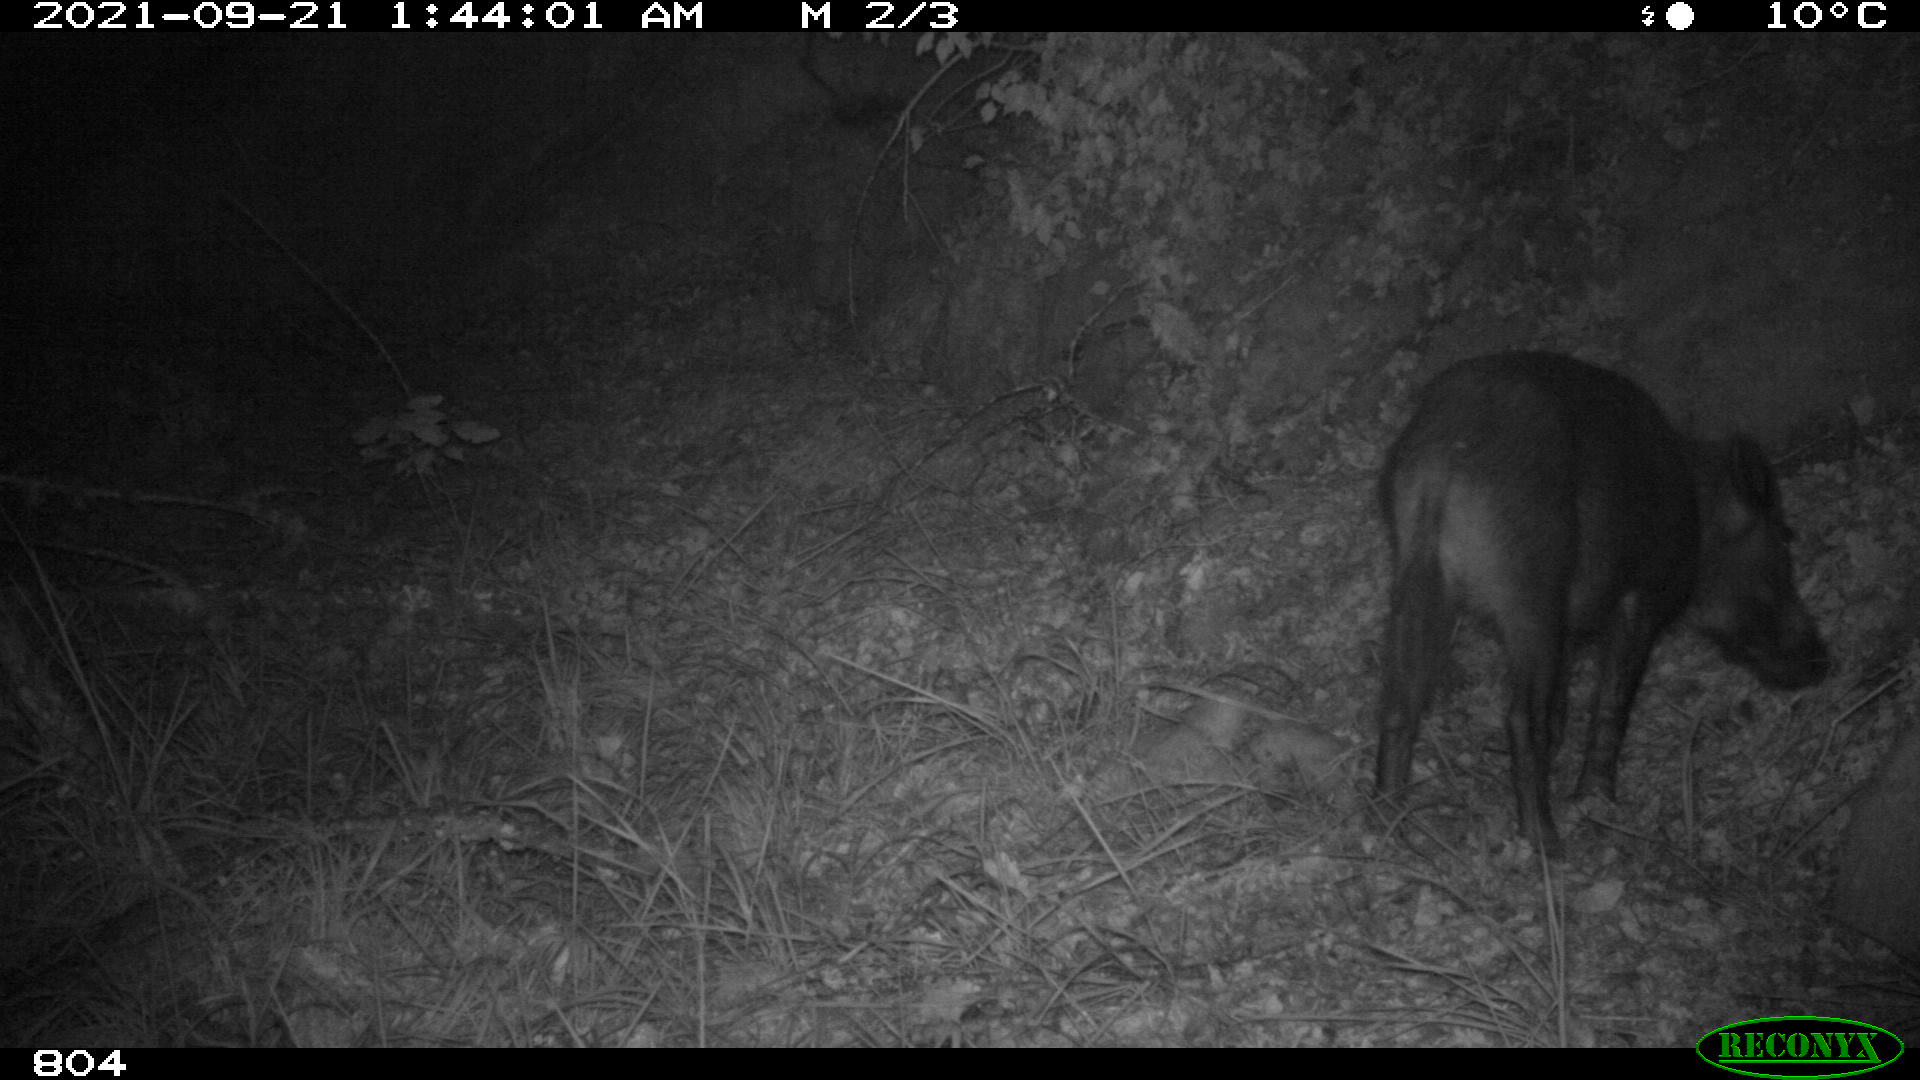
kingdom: Animalia
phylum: Chordata
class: Mammalia
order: Artiodactyla
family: Suidae
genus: Sus
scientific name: Sus scrofa
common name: Wild boar
